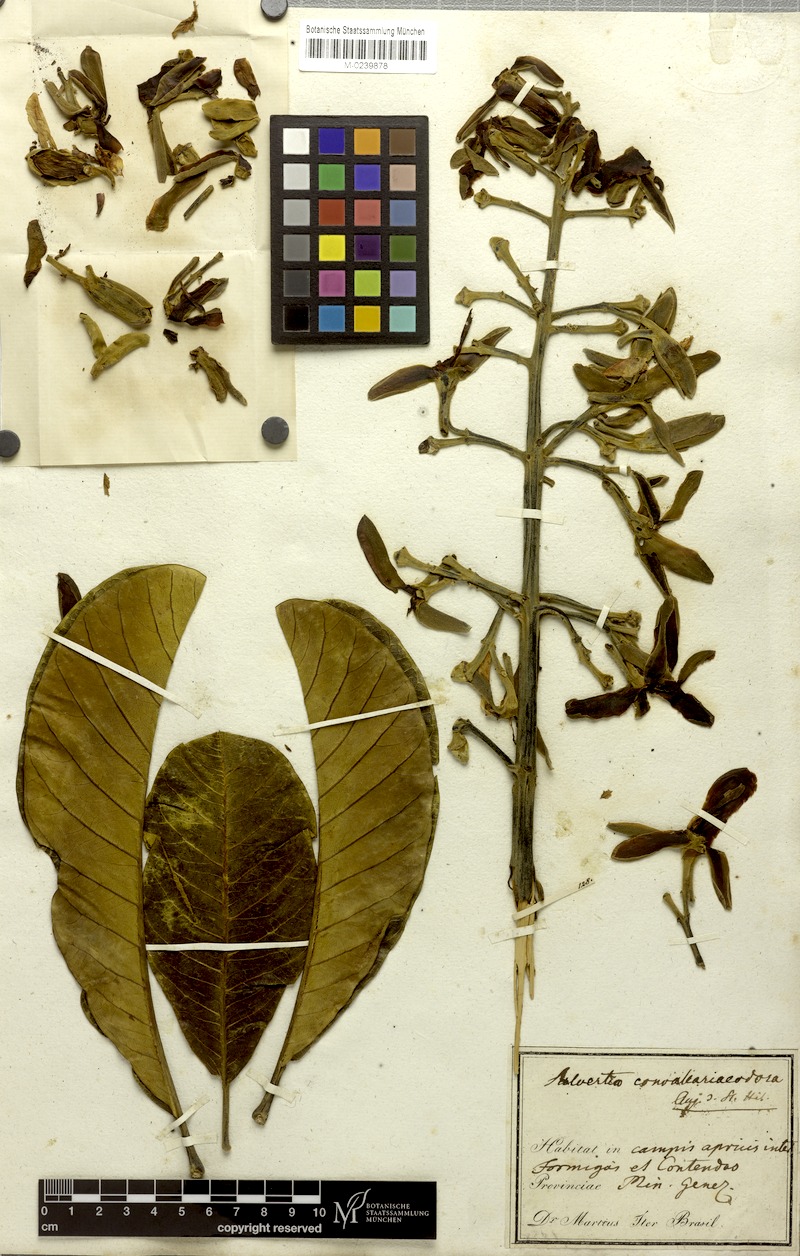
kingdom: Plantae
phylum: Tracheophyta
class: Magnoliopsida
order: Myrtales
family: Vochysiaceae
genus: Salvertia
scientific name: Salvertia convallariodora
